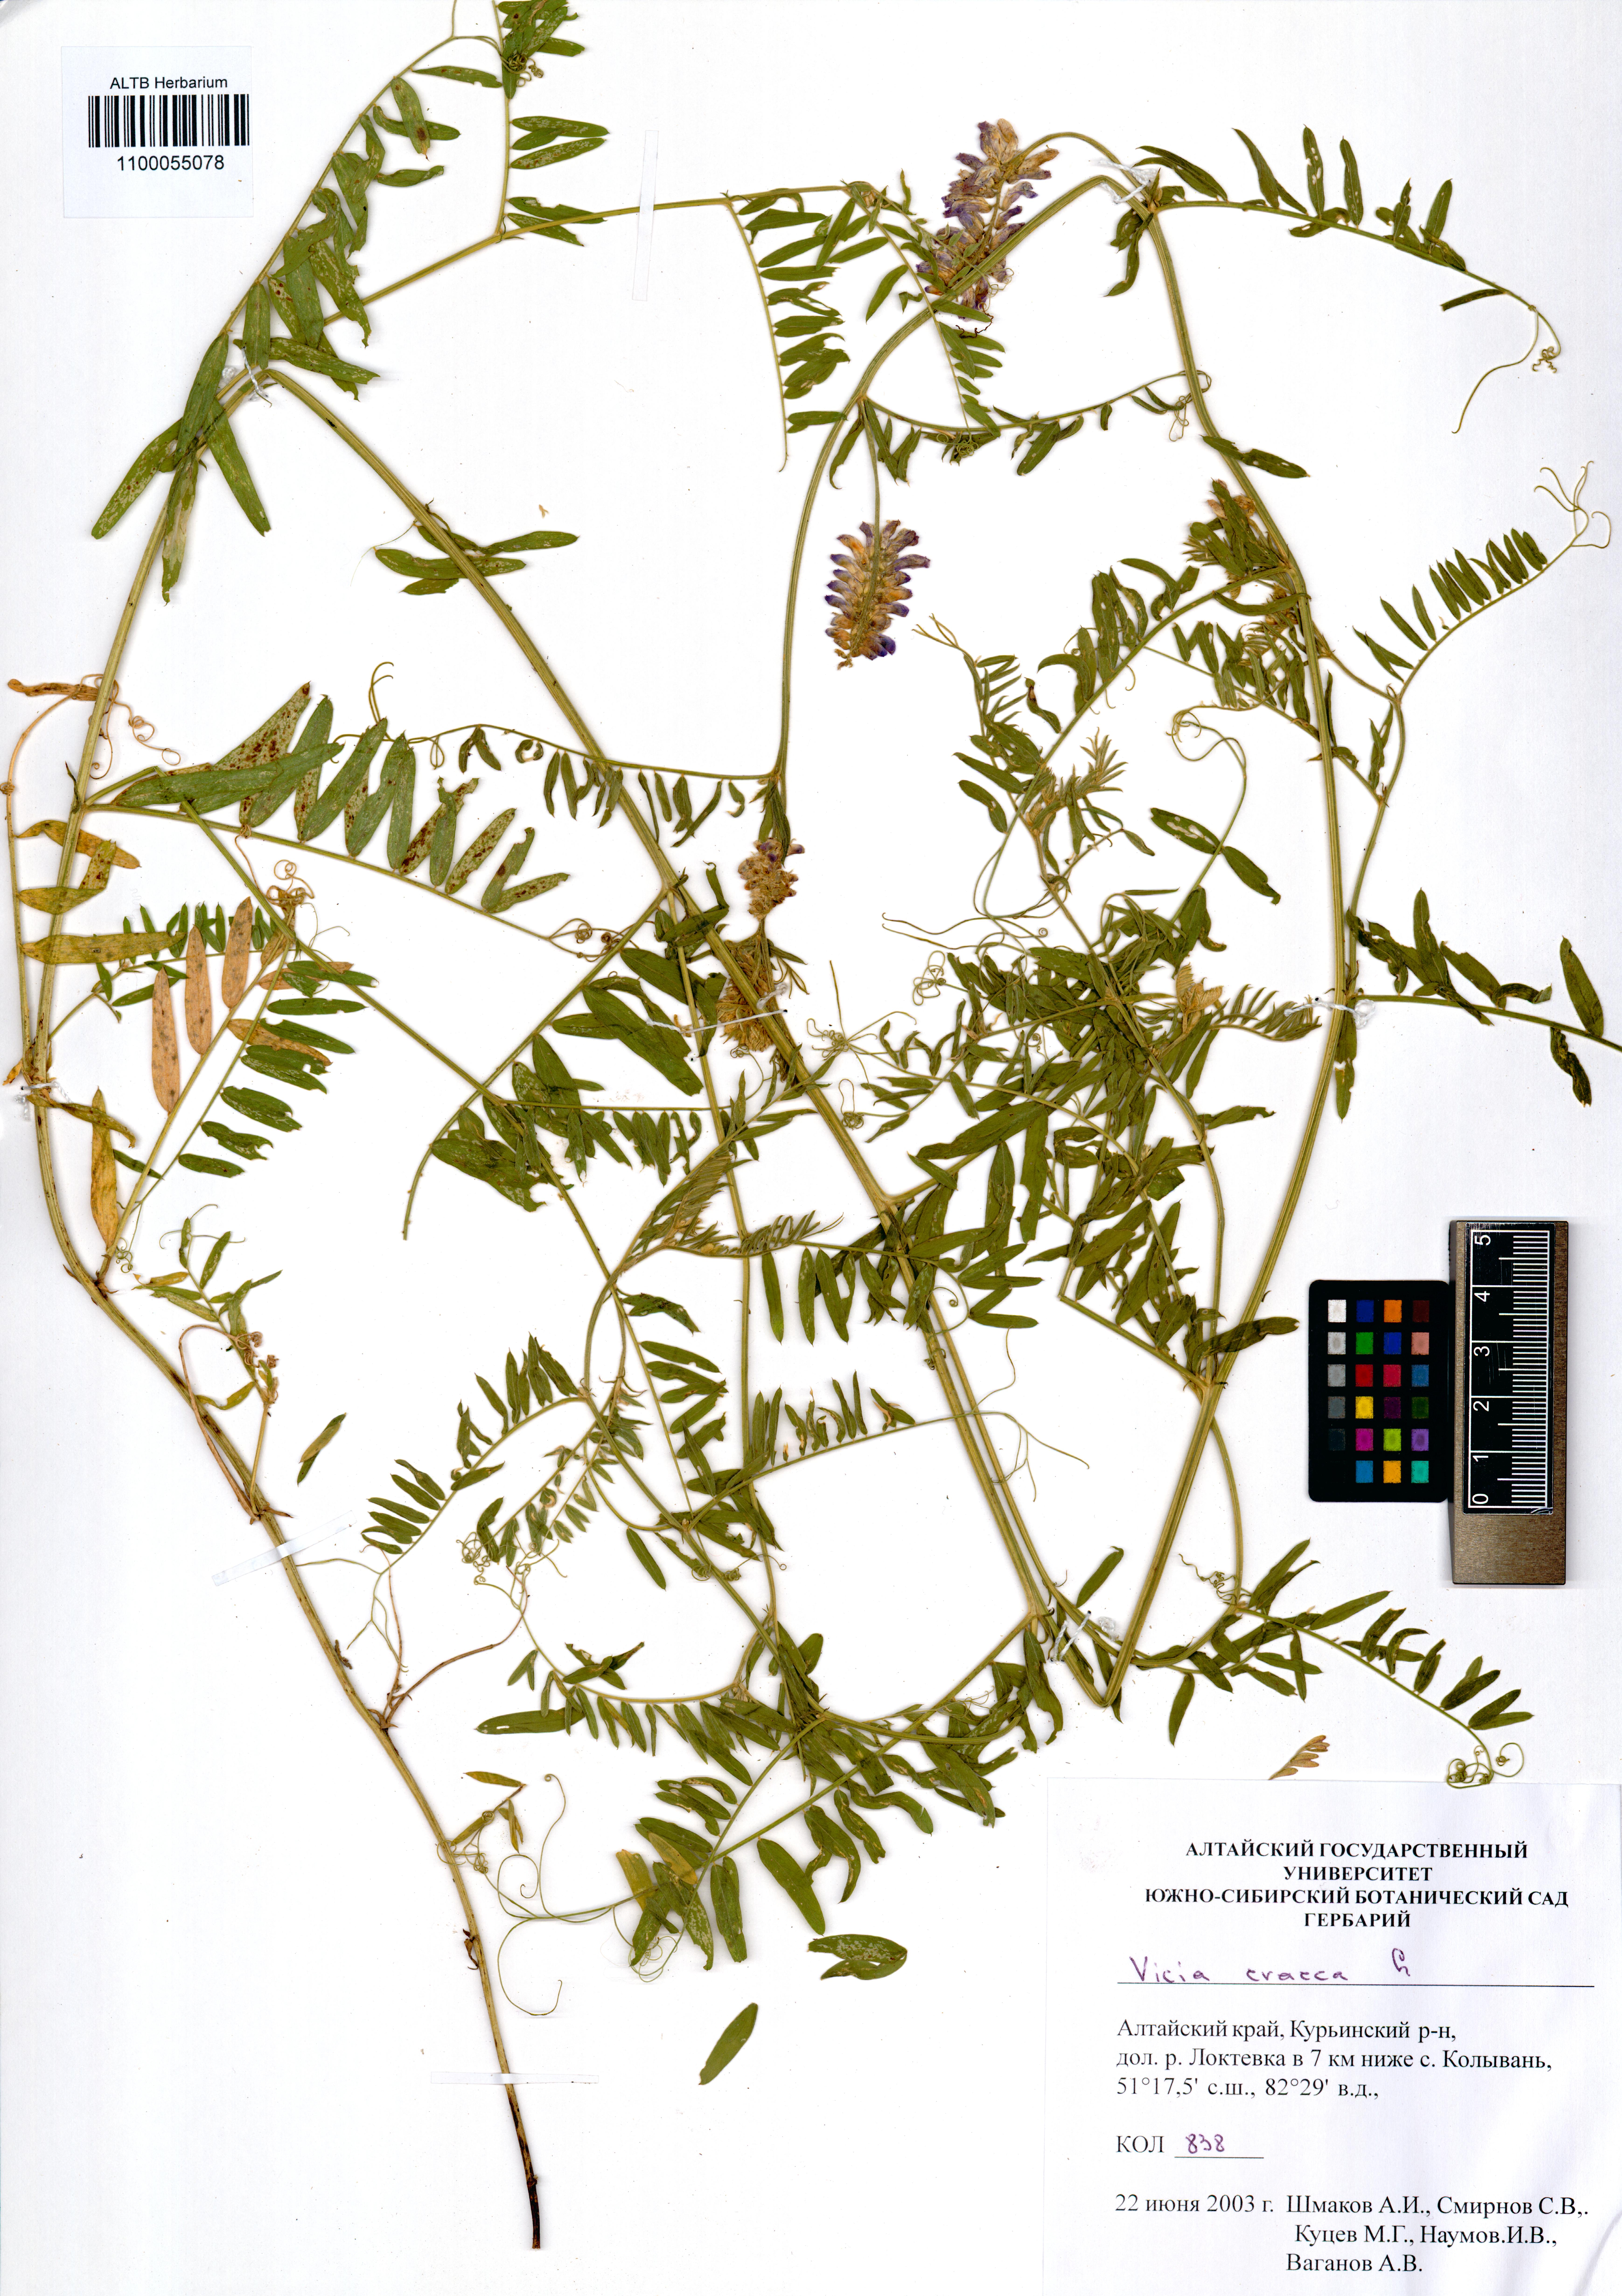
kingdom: Plantae
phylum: Tracheophyta
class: Magnoliopsida
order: Fabales
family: Fabaceae
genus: Vicia
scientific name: Vicia cracca
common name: Bird vetch
